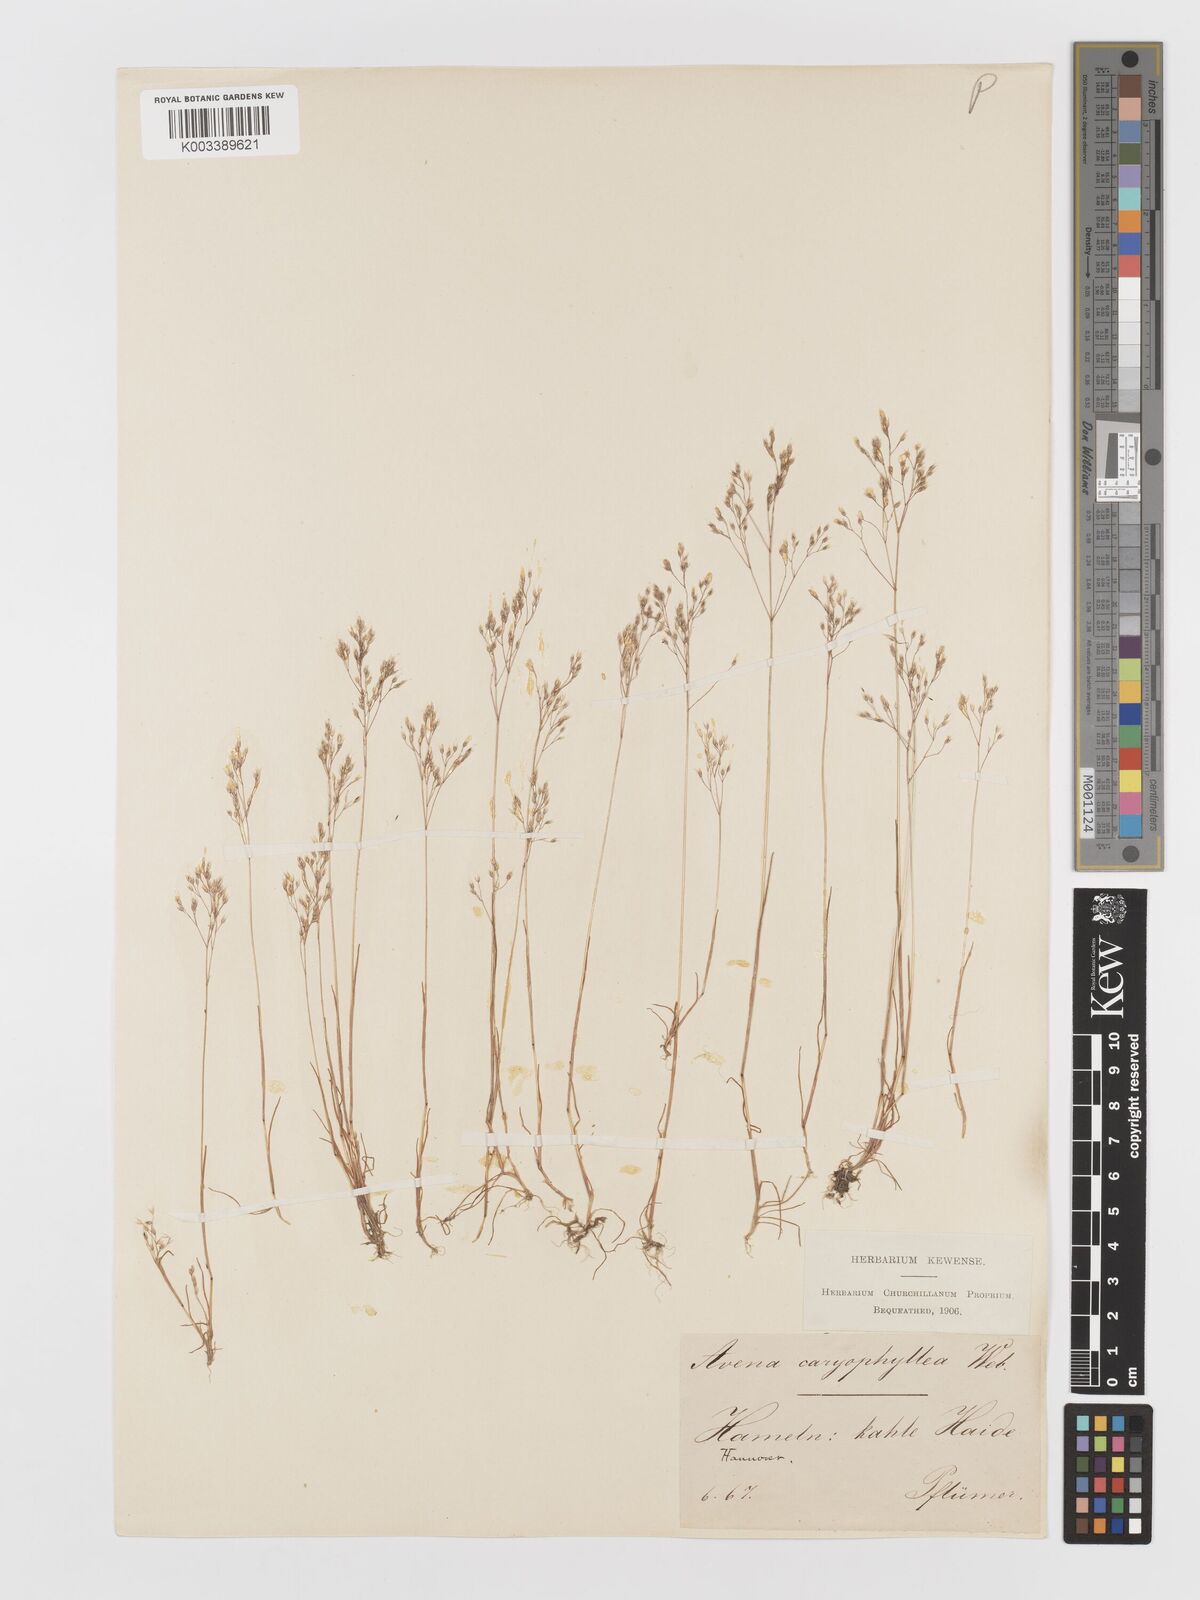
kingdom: Plantae
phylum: Tracheophyta
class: Liliopsida
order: Poales
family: Poaceae
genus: Aira
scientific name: Aira caryophyllea
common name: Silver hairgrass
